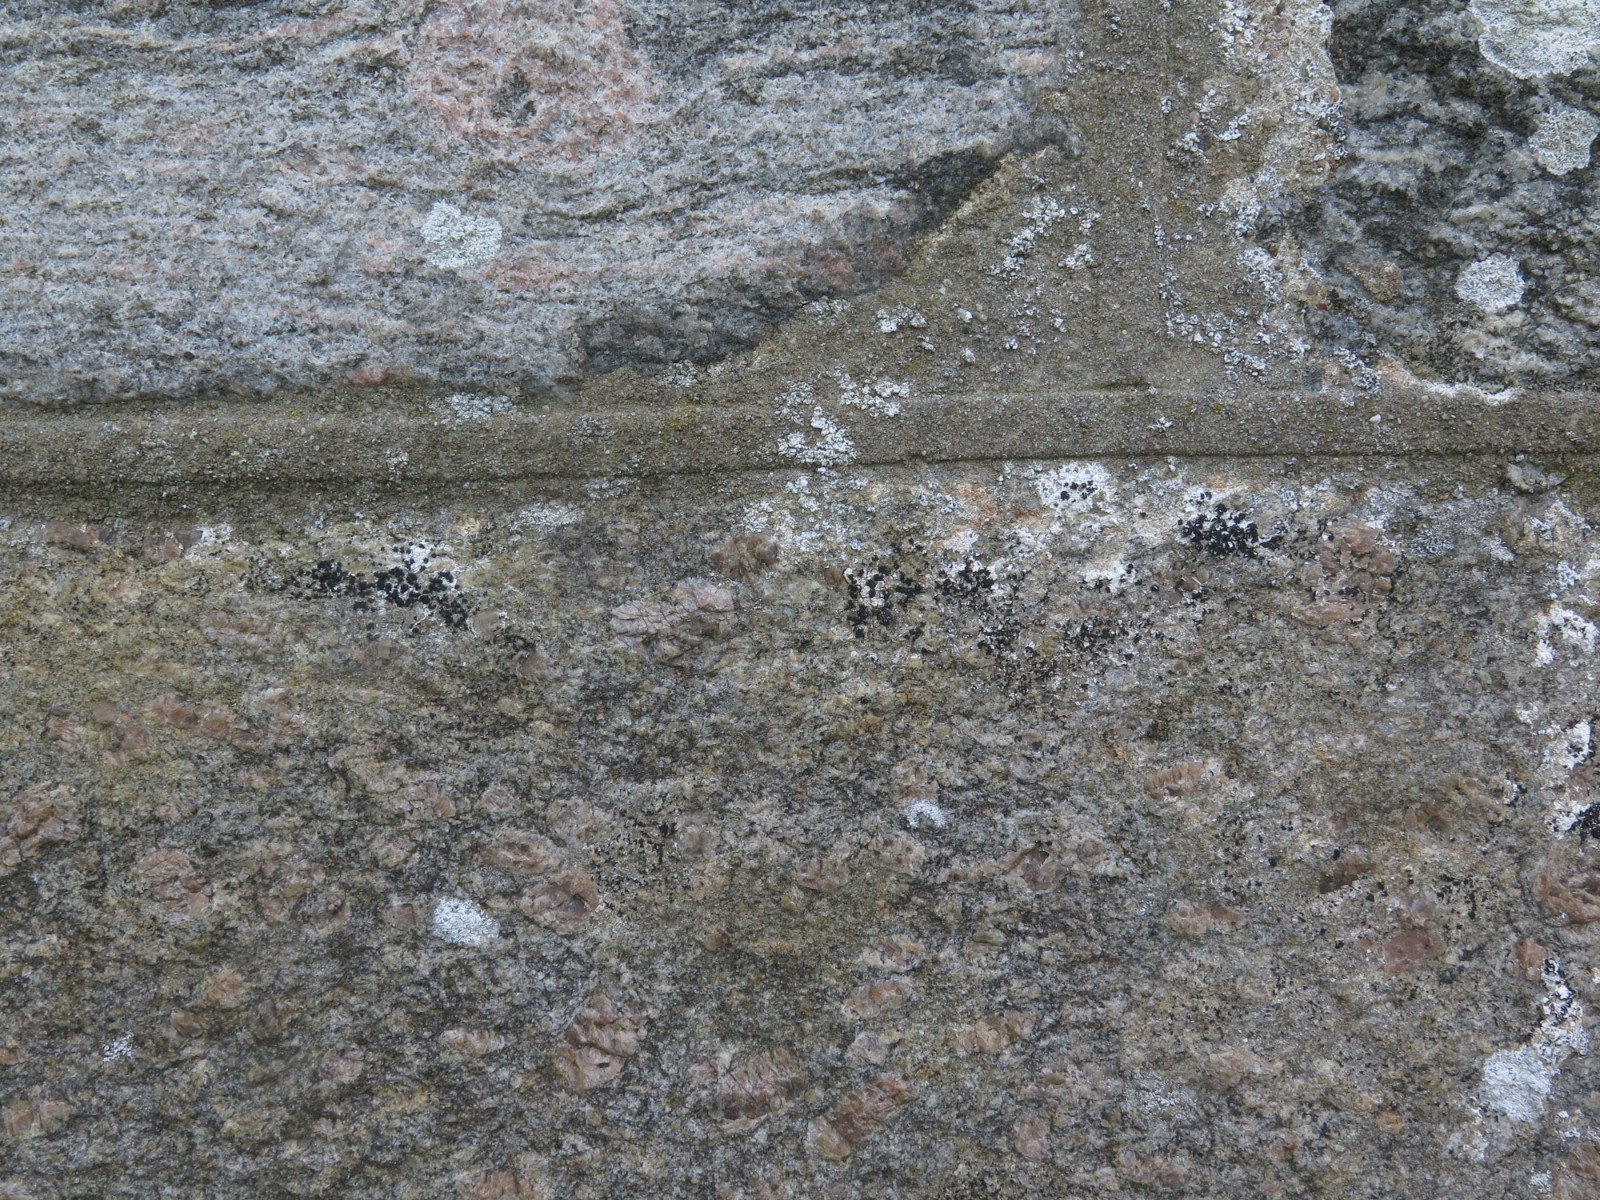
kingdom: Fungi
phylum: Ascomycota
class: Arthoniomycetes
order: Arthoniales
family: Arthoniaceae
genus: Arthonia
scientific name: Arthonia calcarea
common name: kalk-bogstavlav
